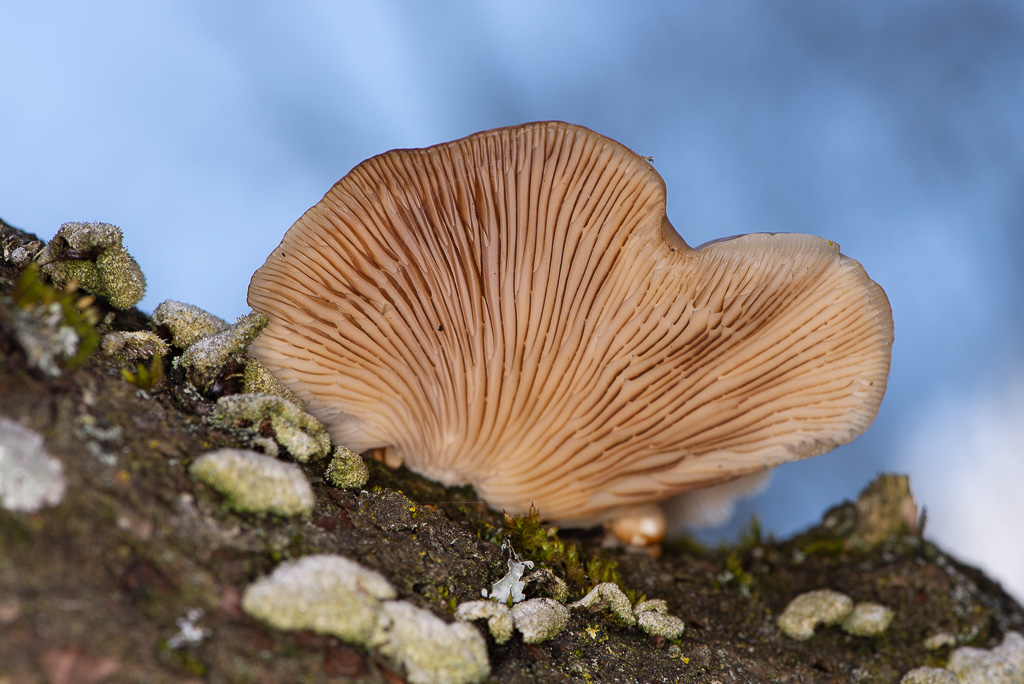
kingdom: Fungi
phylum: Basidiomycota
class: Agaricomycetes
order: Agaricales
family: Pleurotaceae
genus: Pleurotus
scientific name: Pleurotus
